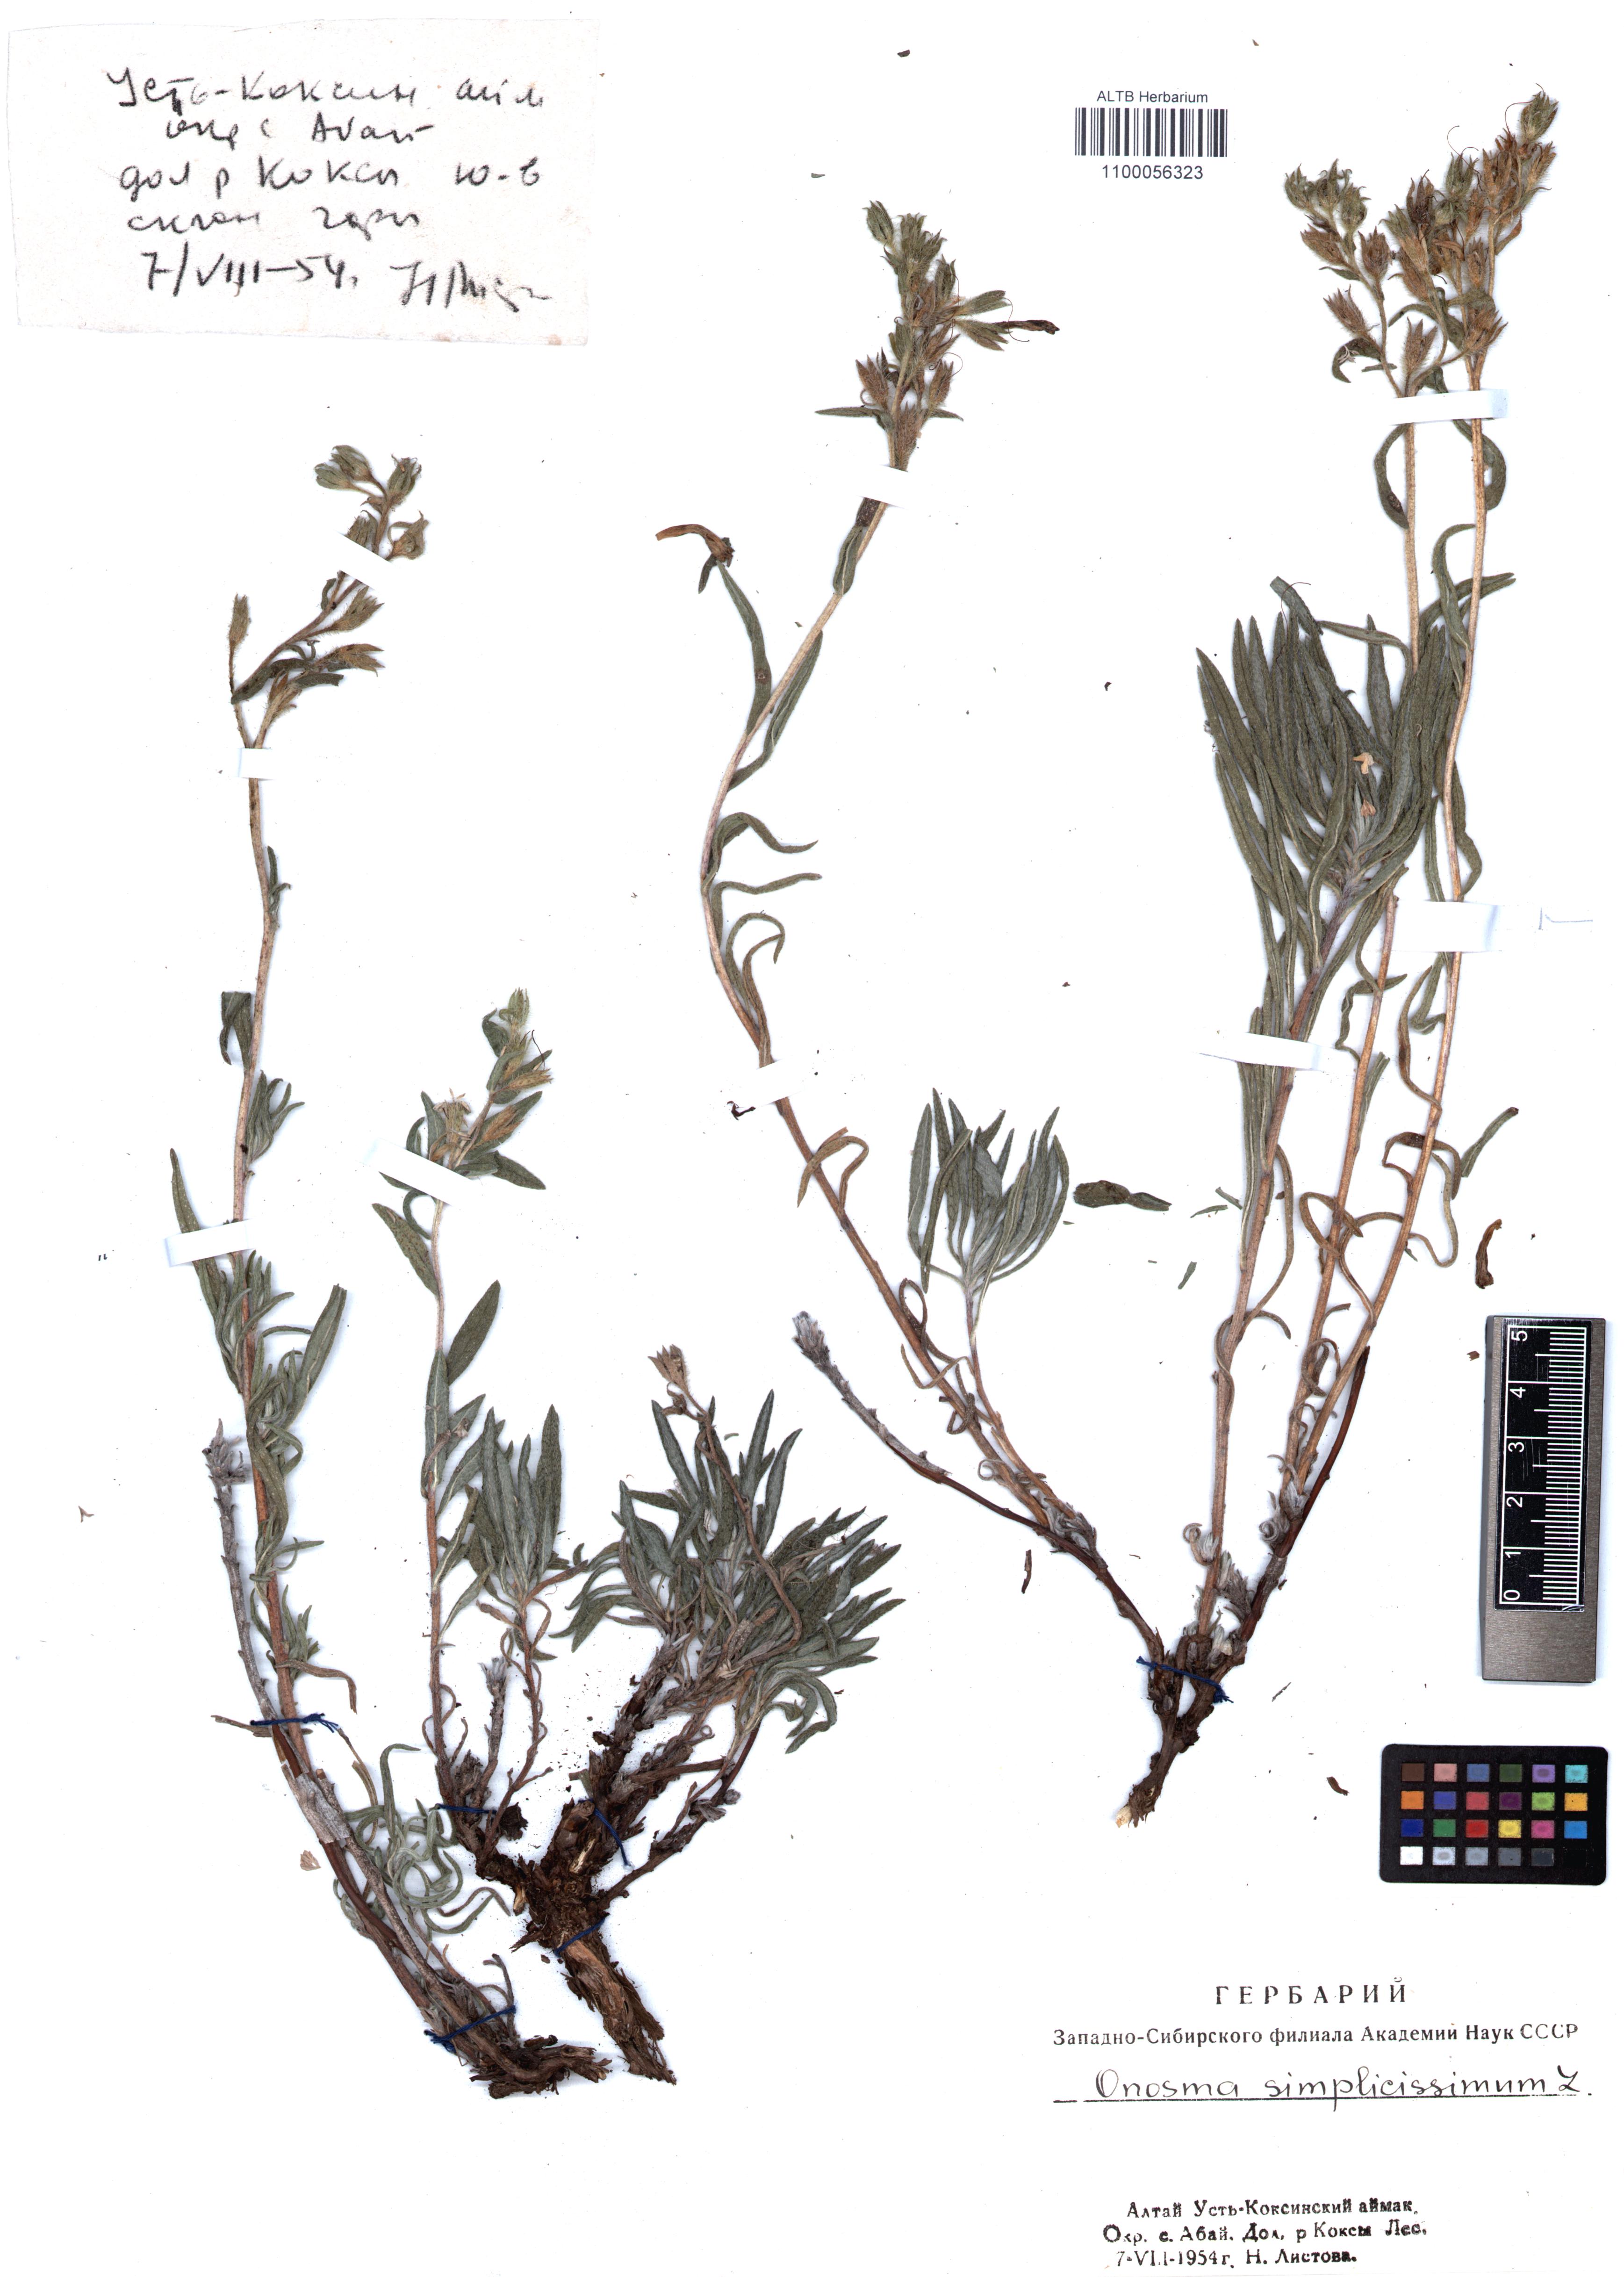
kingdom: Plantae
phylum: Tracheophyta
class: Magnoliopsida
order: Boraginales
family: Boraginaceae
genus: Onosma
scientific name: Onosma simplicissima
